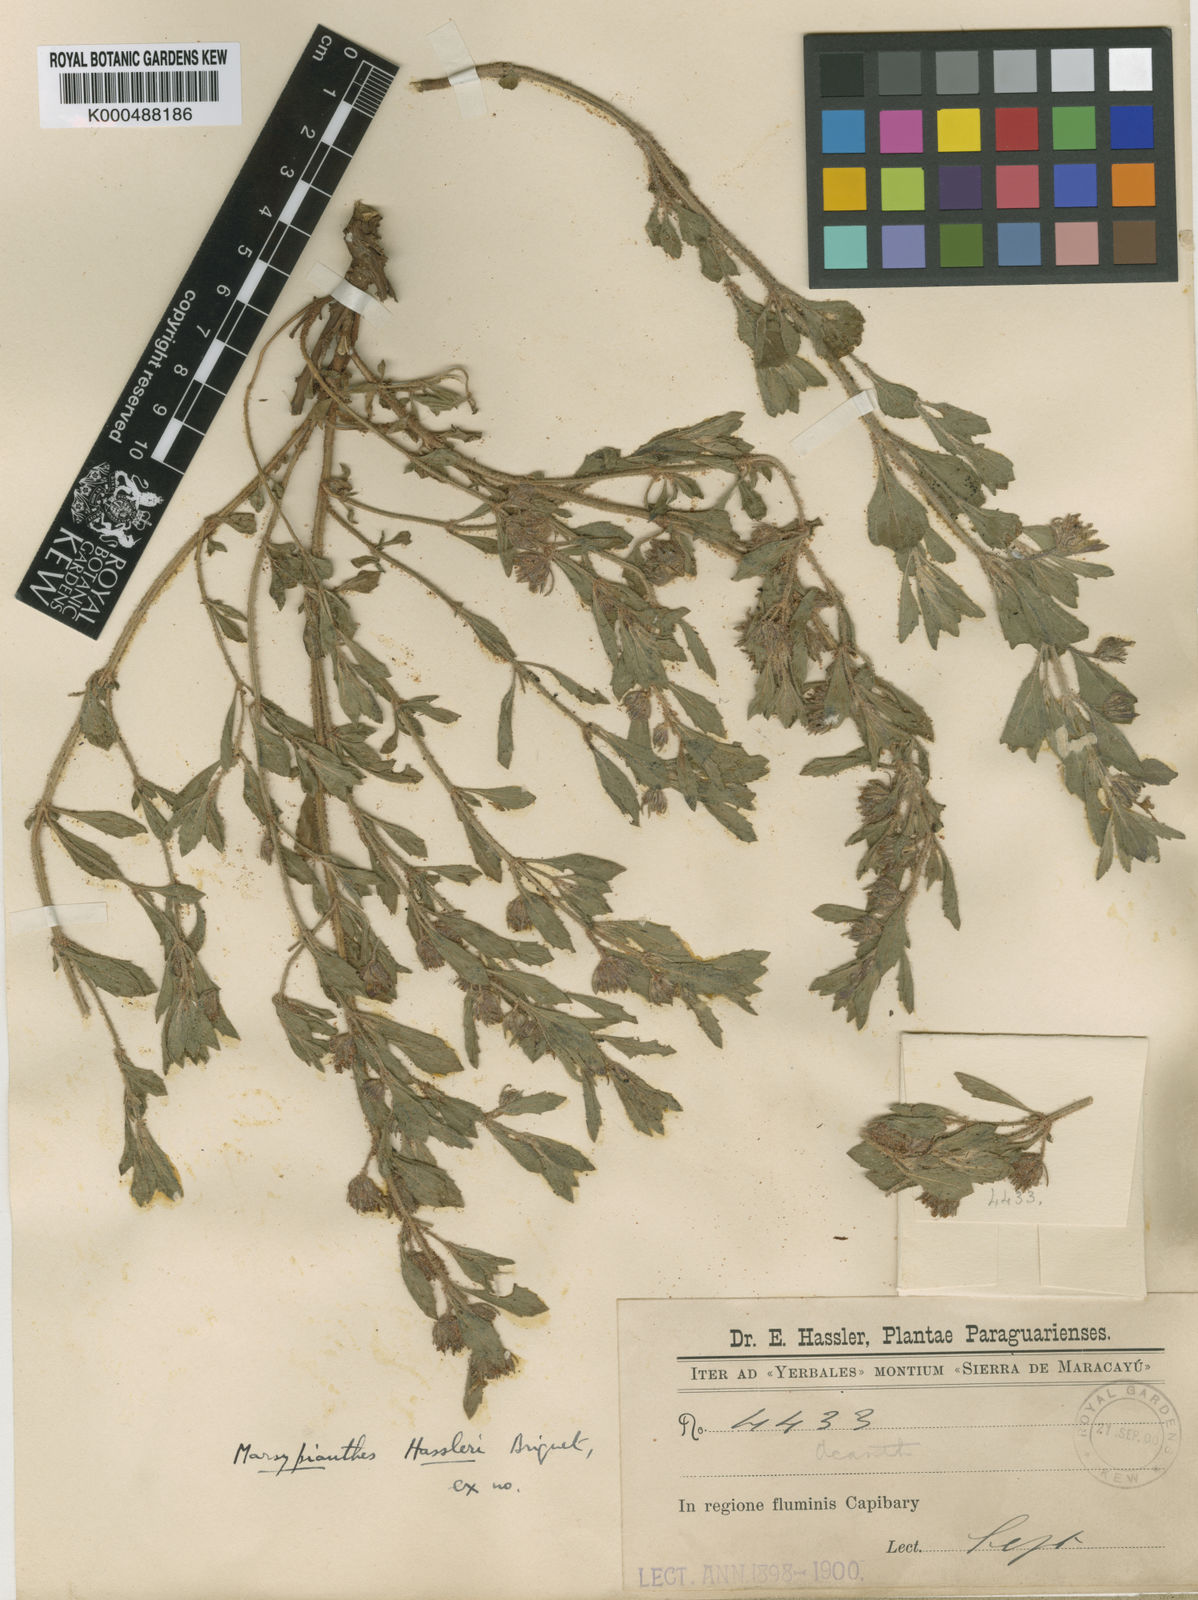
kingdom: Plantae
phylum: Tracheophyta
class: Magnoliopsida
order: Lamiales
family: Lamiaceae
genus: Marsypianthes
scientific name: Marsypianthes hassleri
